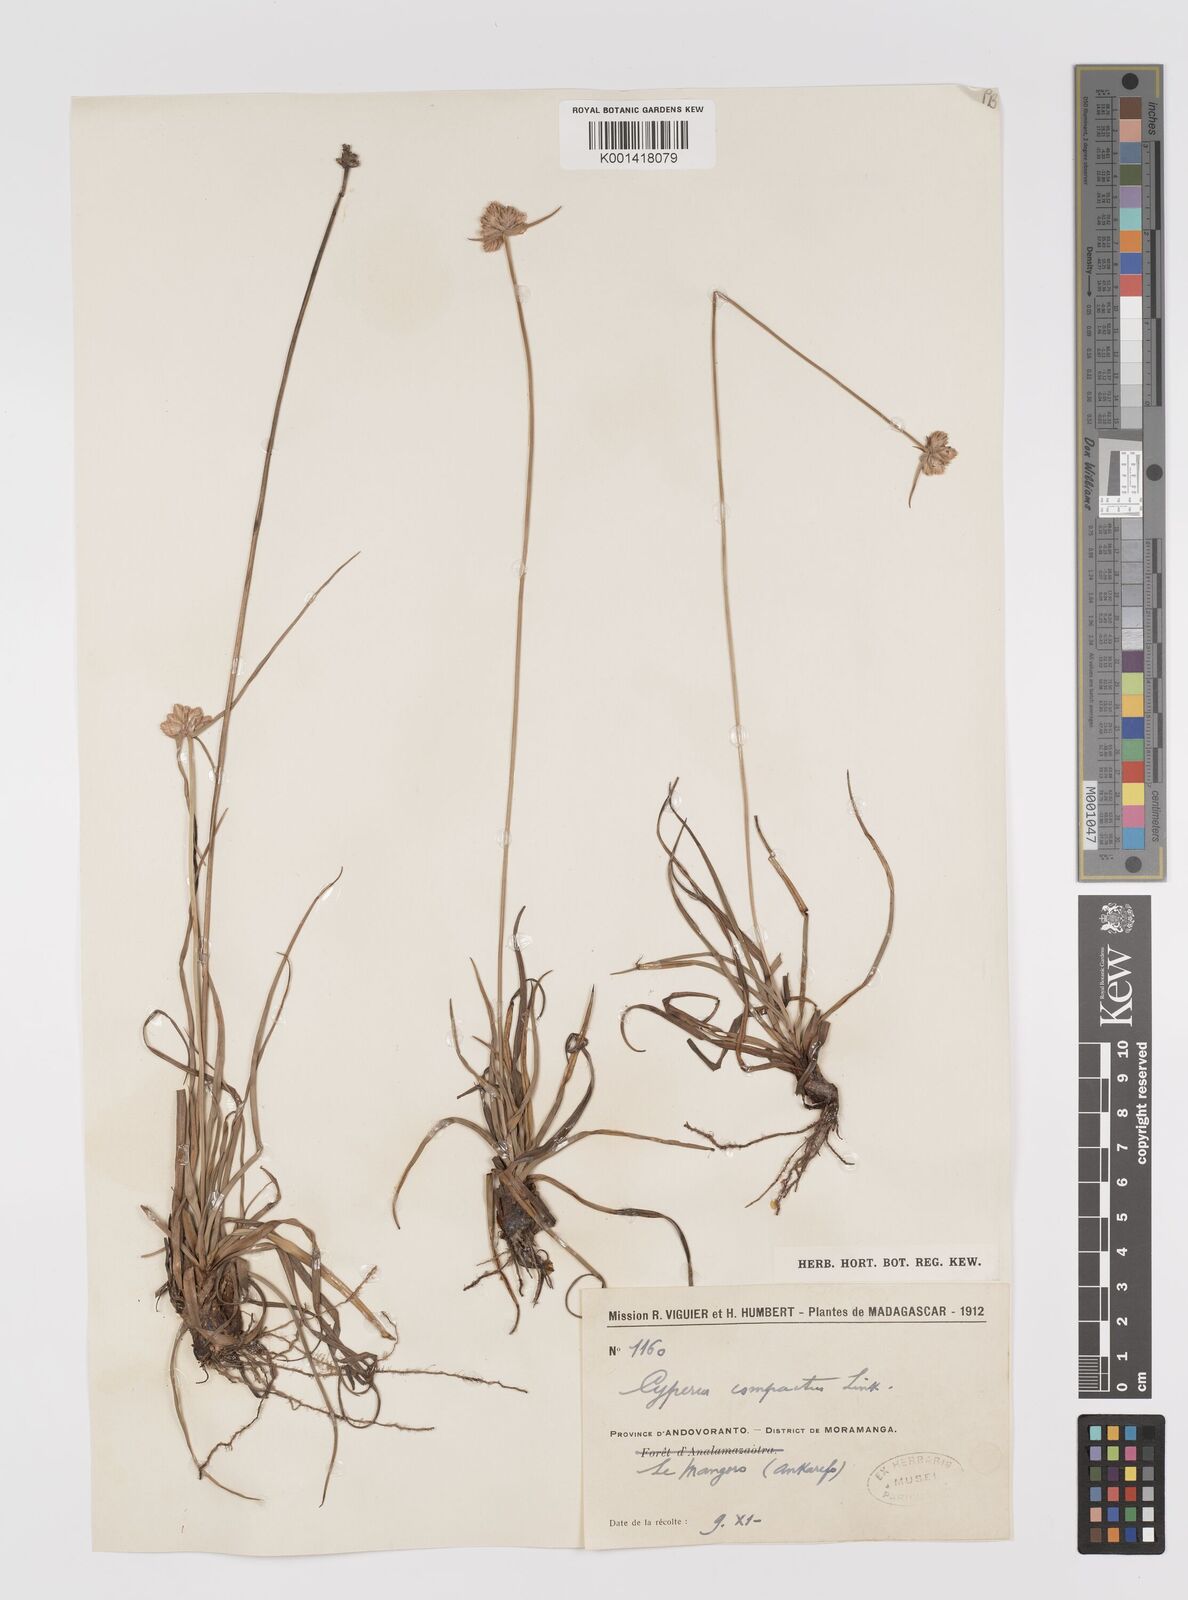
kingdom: Plantae
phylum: Tracheophyta
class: Liliopsida
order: Poales
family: Cyperaceae
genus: Cyperus
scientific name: Cyperus niveus
